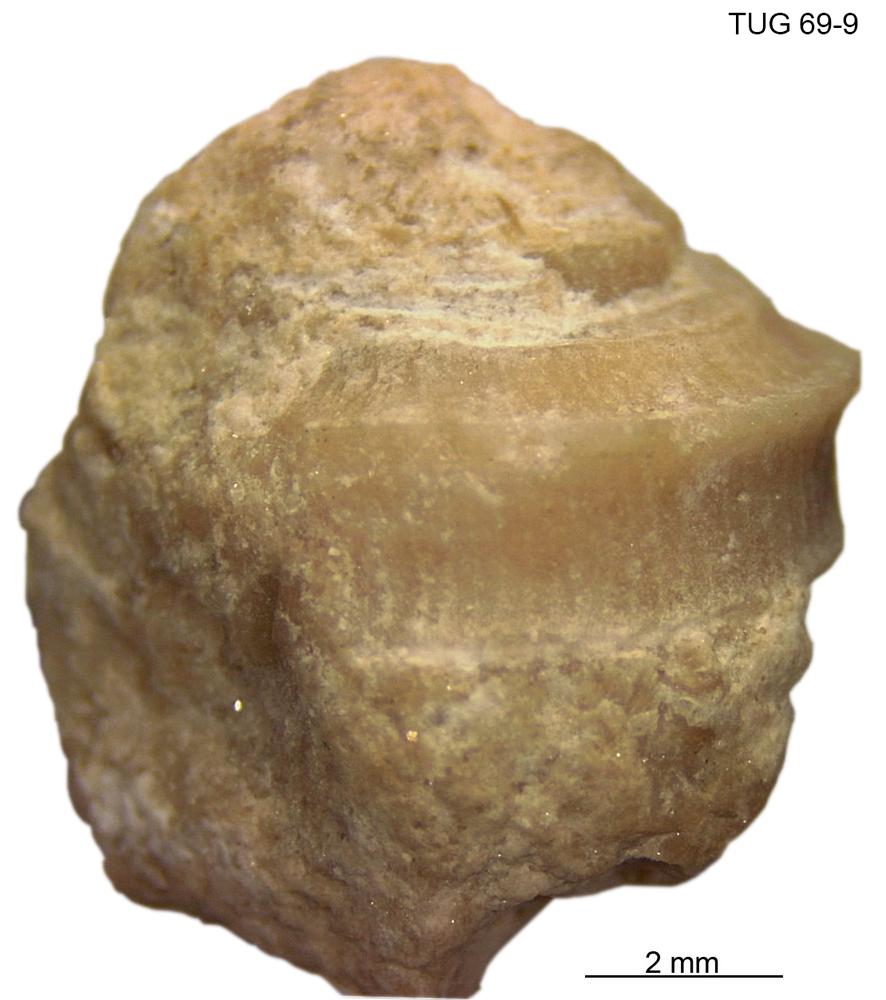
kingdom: Animalia
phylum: Mollusca
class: Gastropoda
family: Trochonematidae
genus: Trochonema
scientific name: Trochonema panderi
